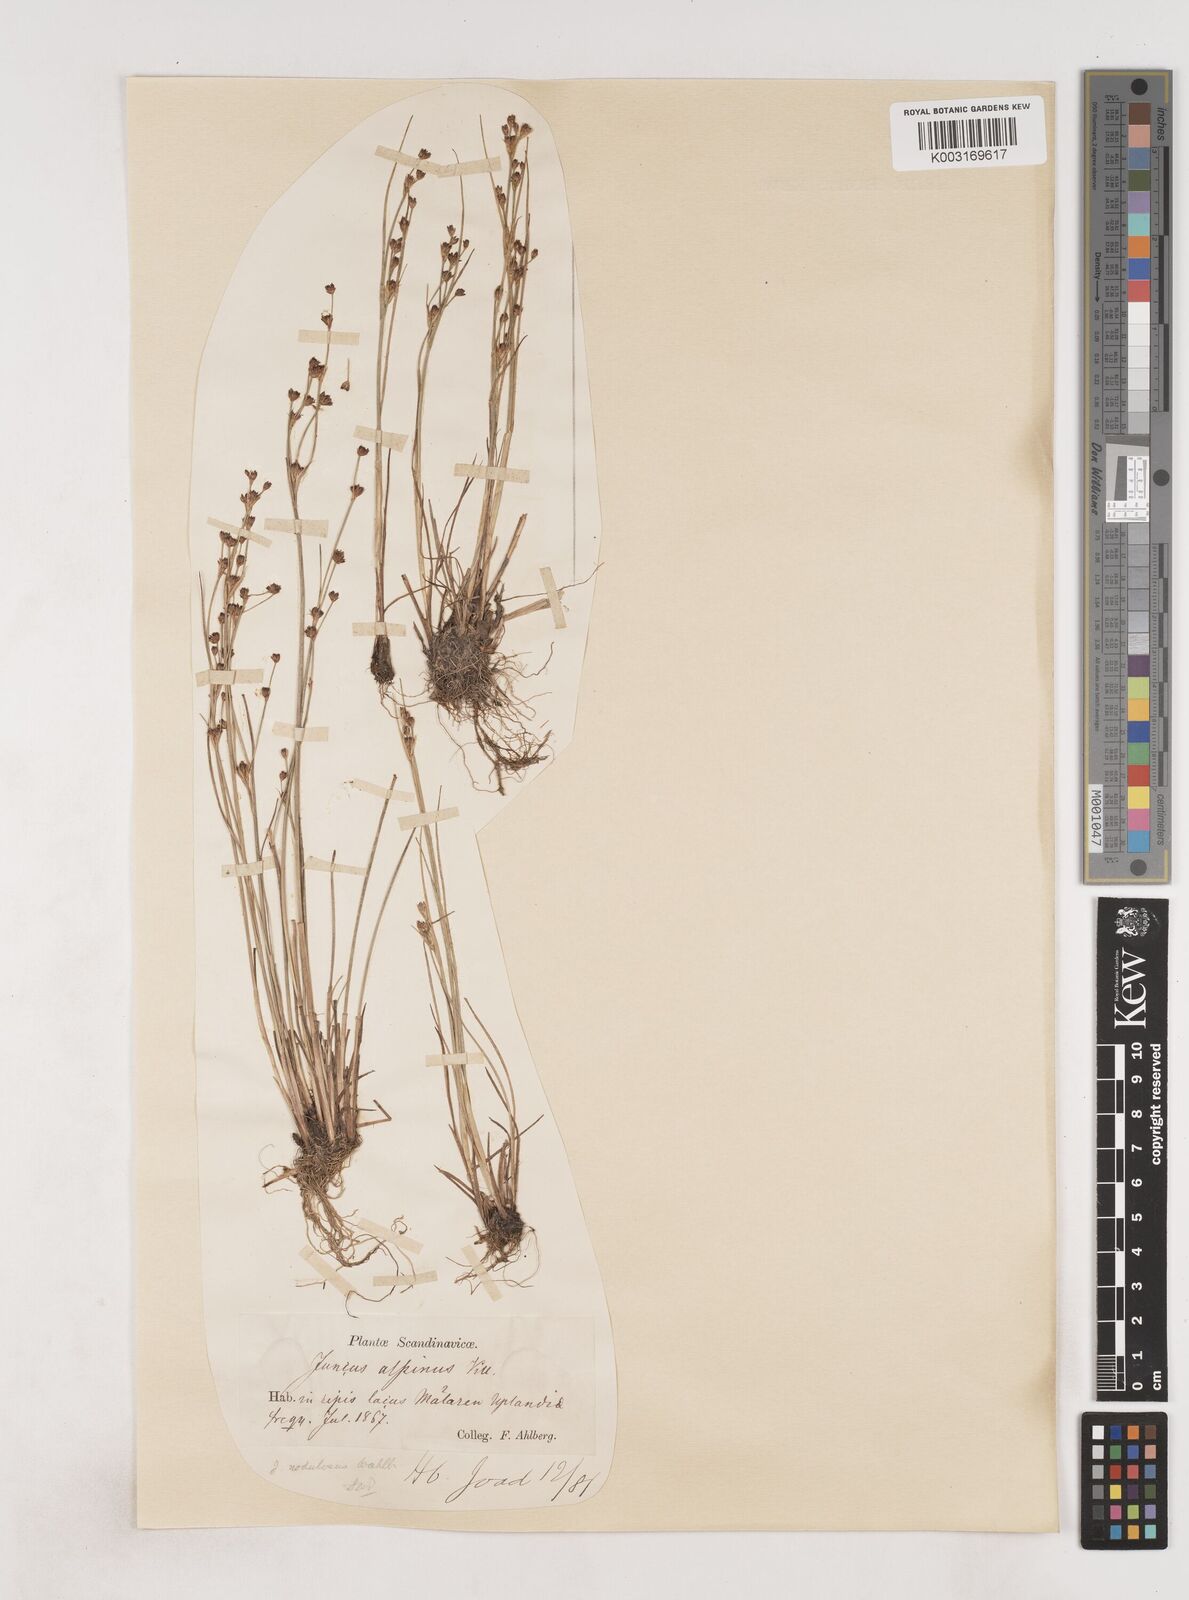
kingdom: Plantae
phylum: Tracheophyta
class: Liliopsida
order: Poales
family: Juncaceae
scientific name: Juncaceae
